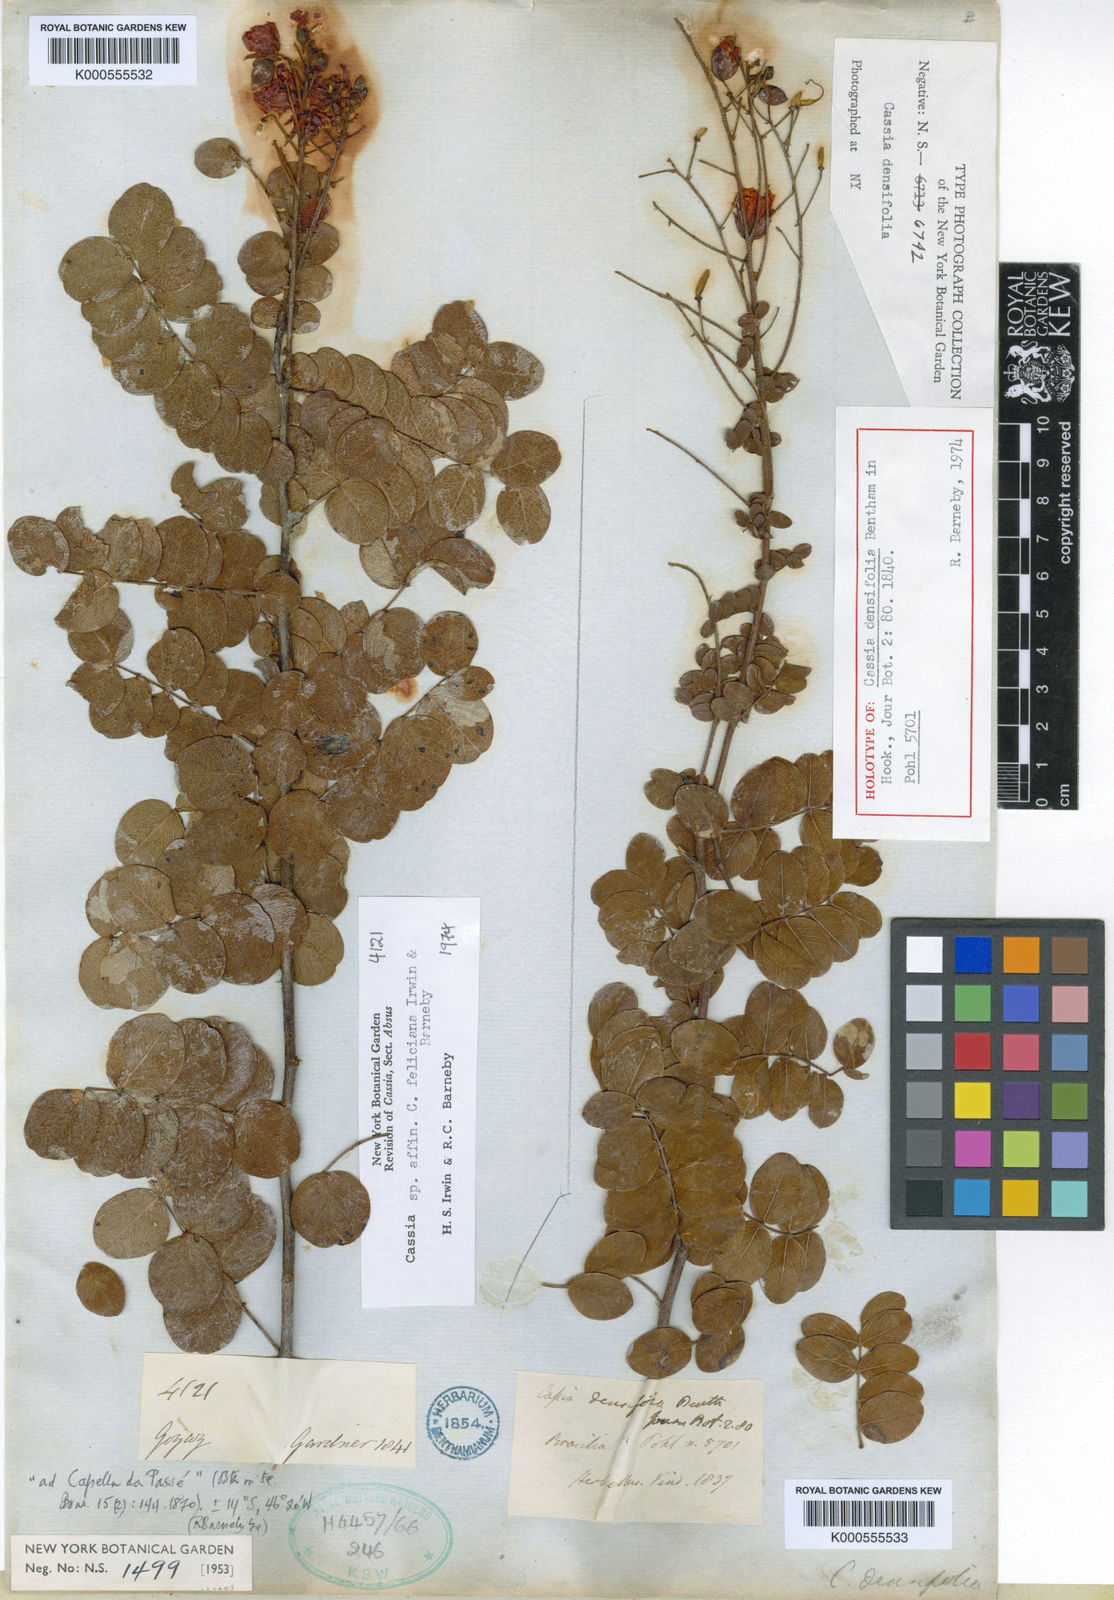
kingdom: Plantae
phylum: Tracheophyta
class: Magnoliopsida
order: Fabales
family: Fabaceae
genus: Chamaecrista
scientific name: Chamaecrista densifolia
